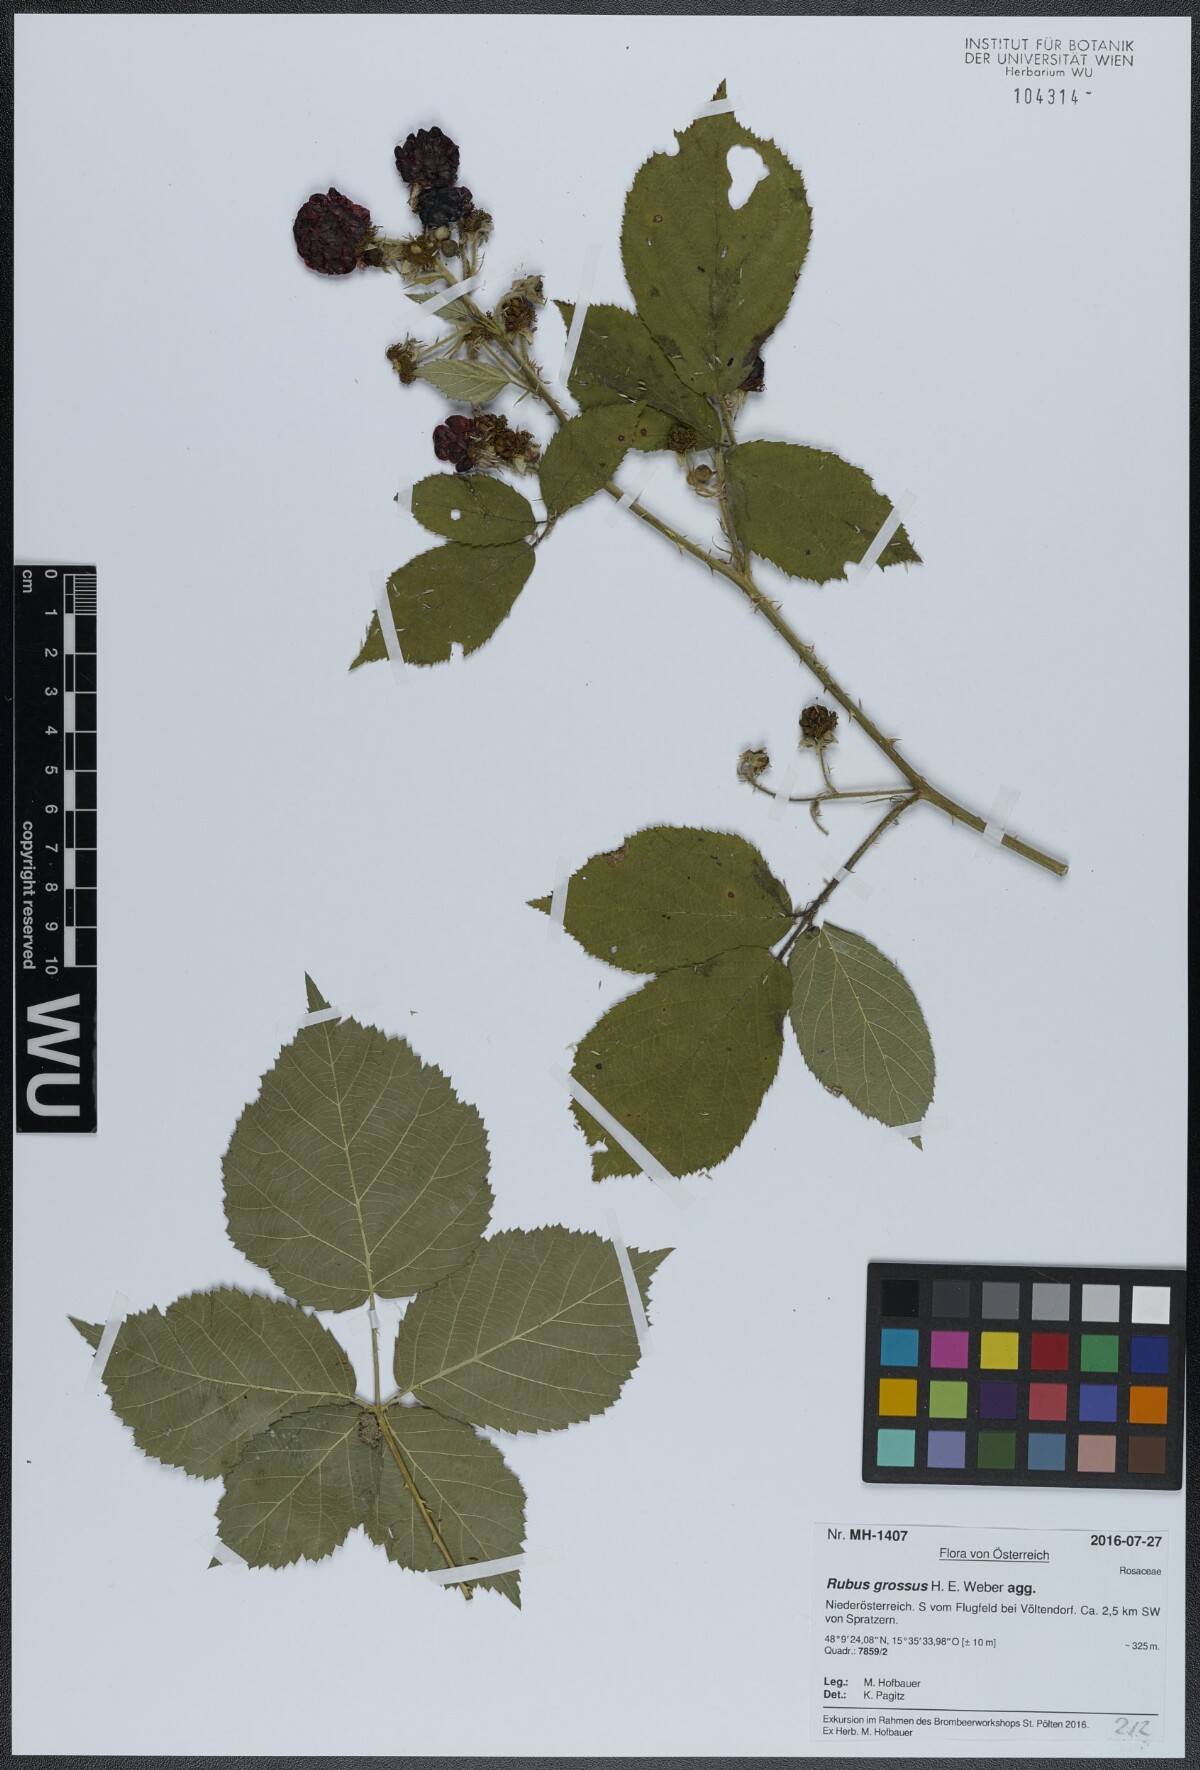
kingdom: Plantae
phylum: Tracheophyta
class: Magnoliopsida
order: Rosales
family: Rosaceae
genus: Rubus
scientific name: Rubus holandrei
